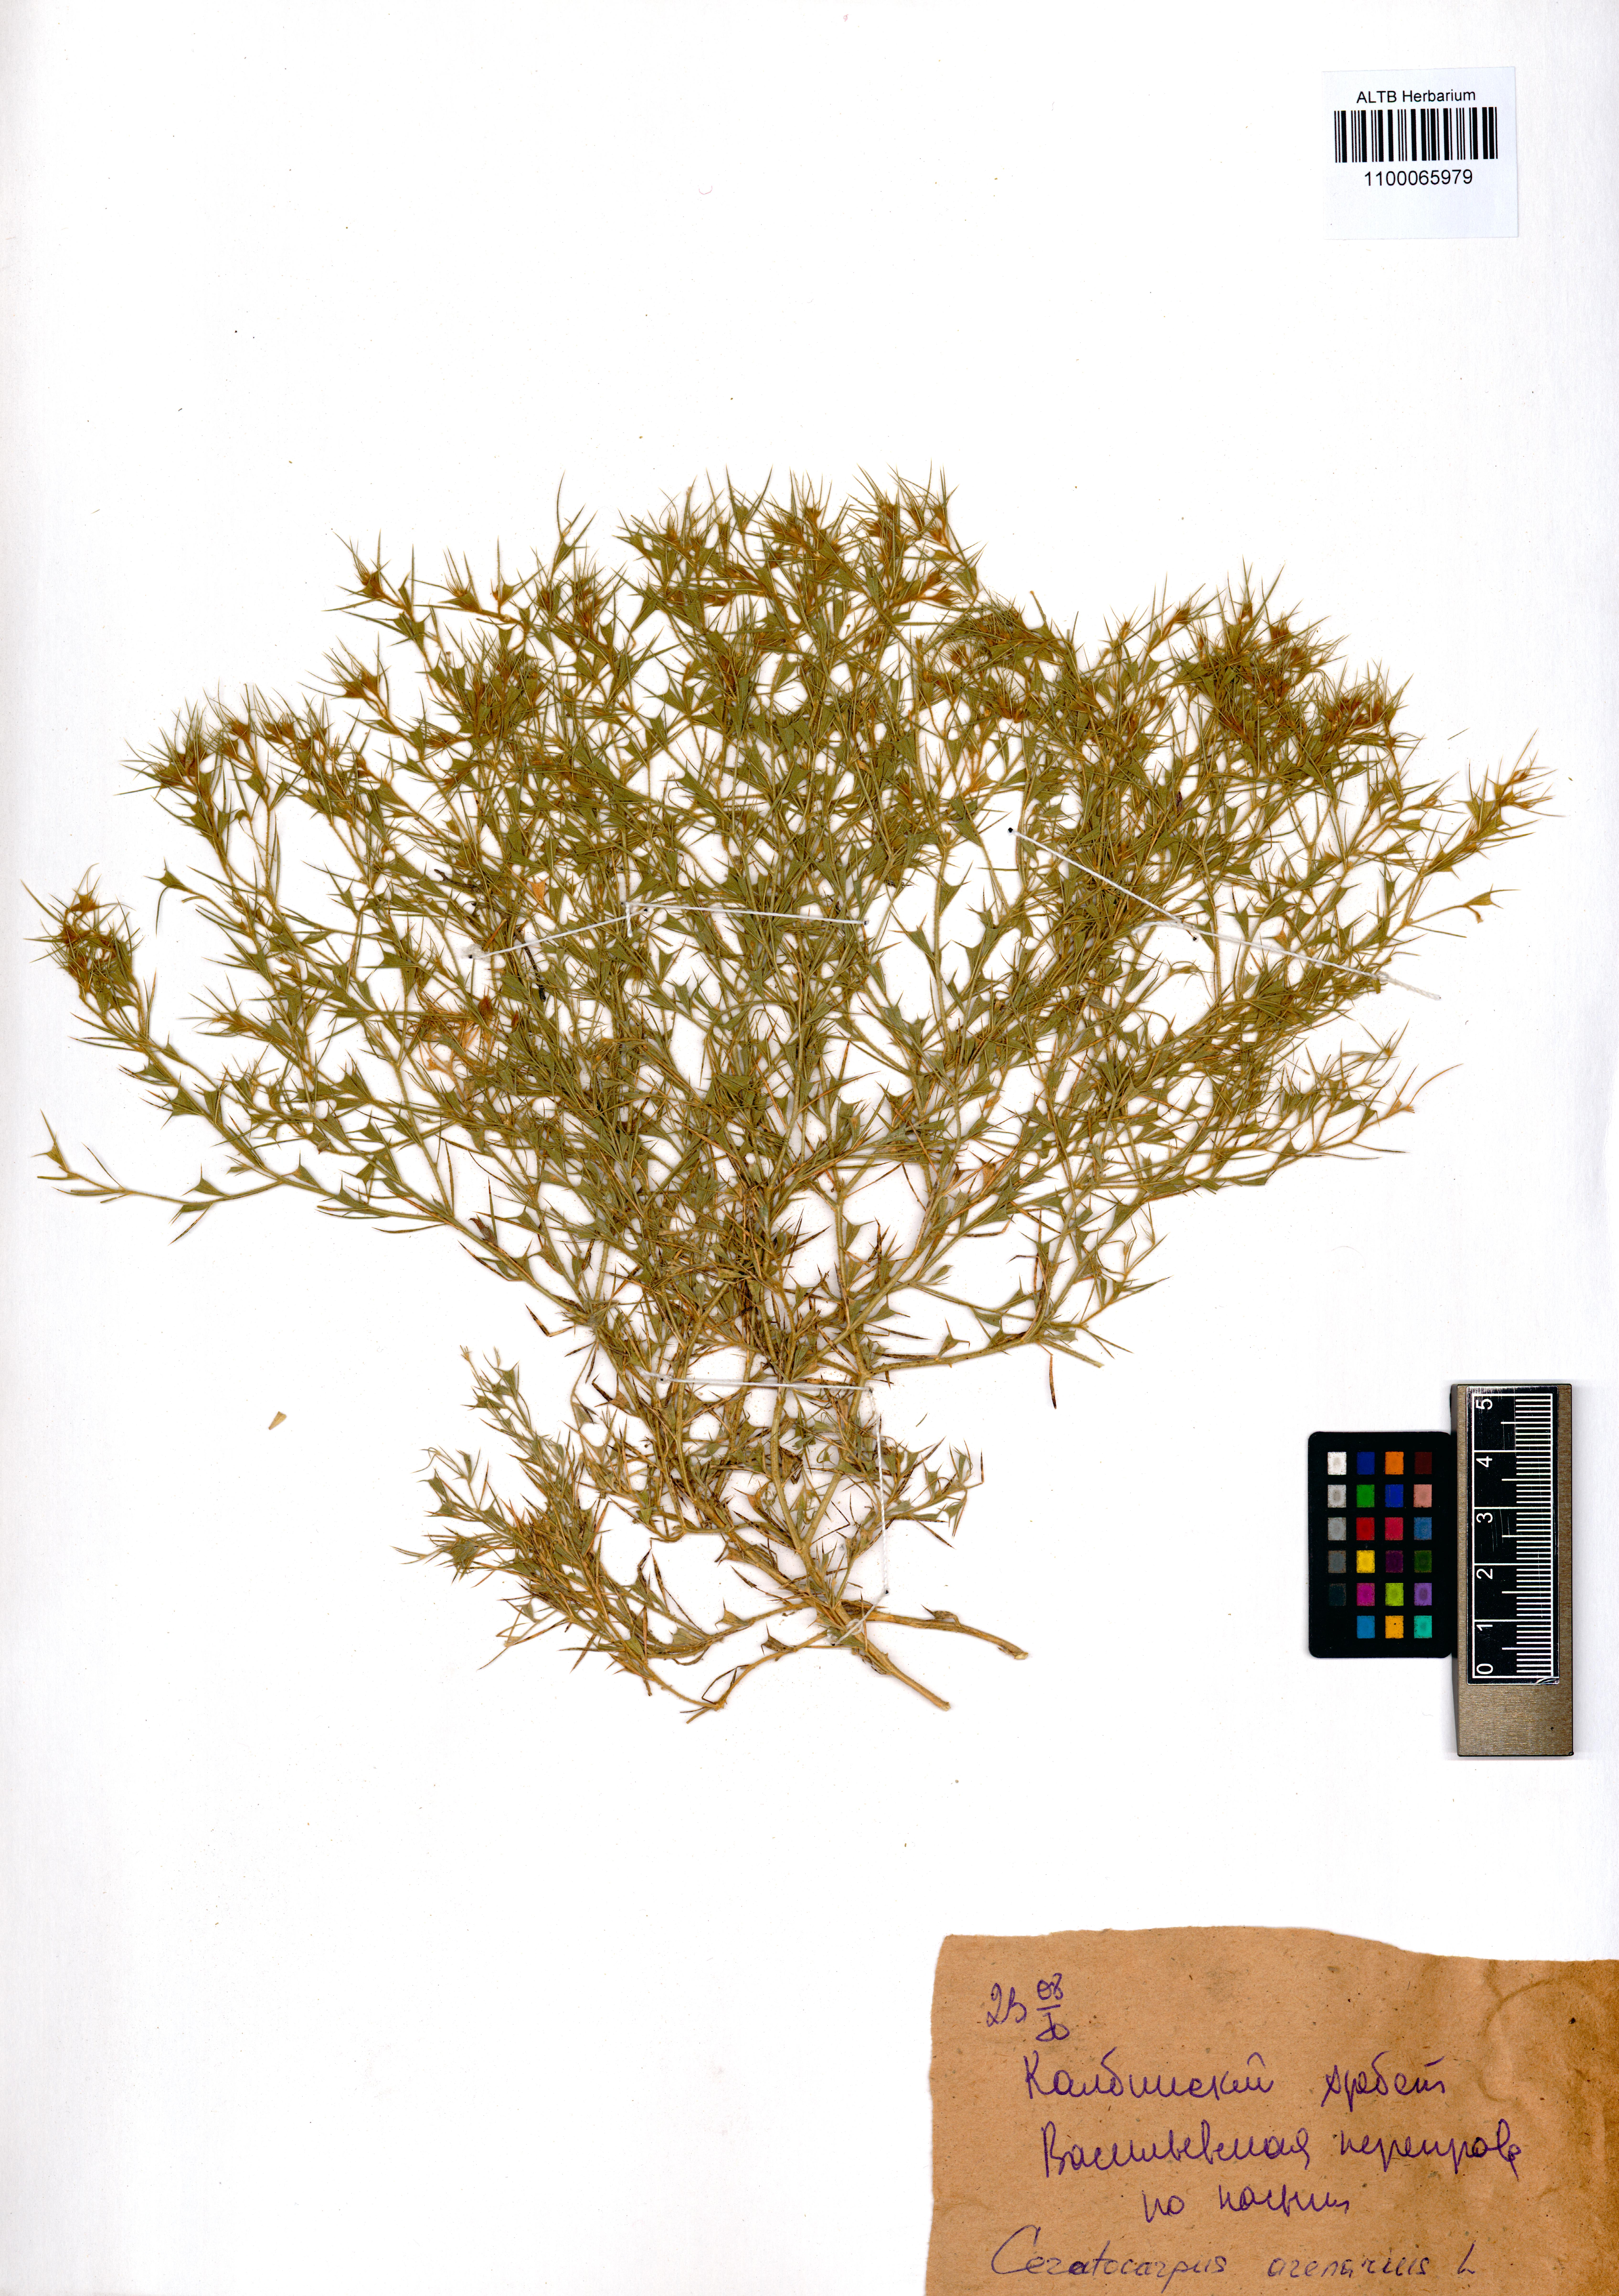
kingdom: Plantae
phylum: Tracheophyta
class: Magnoliopsida
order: Caryophyllales
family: Amaranthaceae
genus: Ceratocarpus
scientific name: Ceratocarpus arenarius
